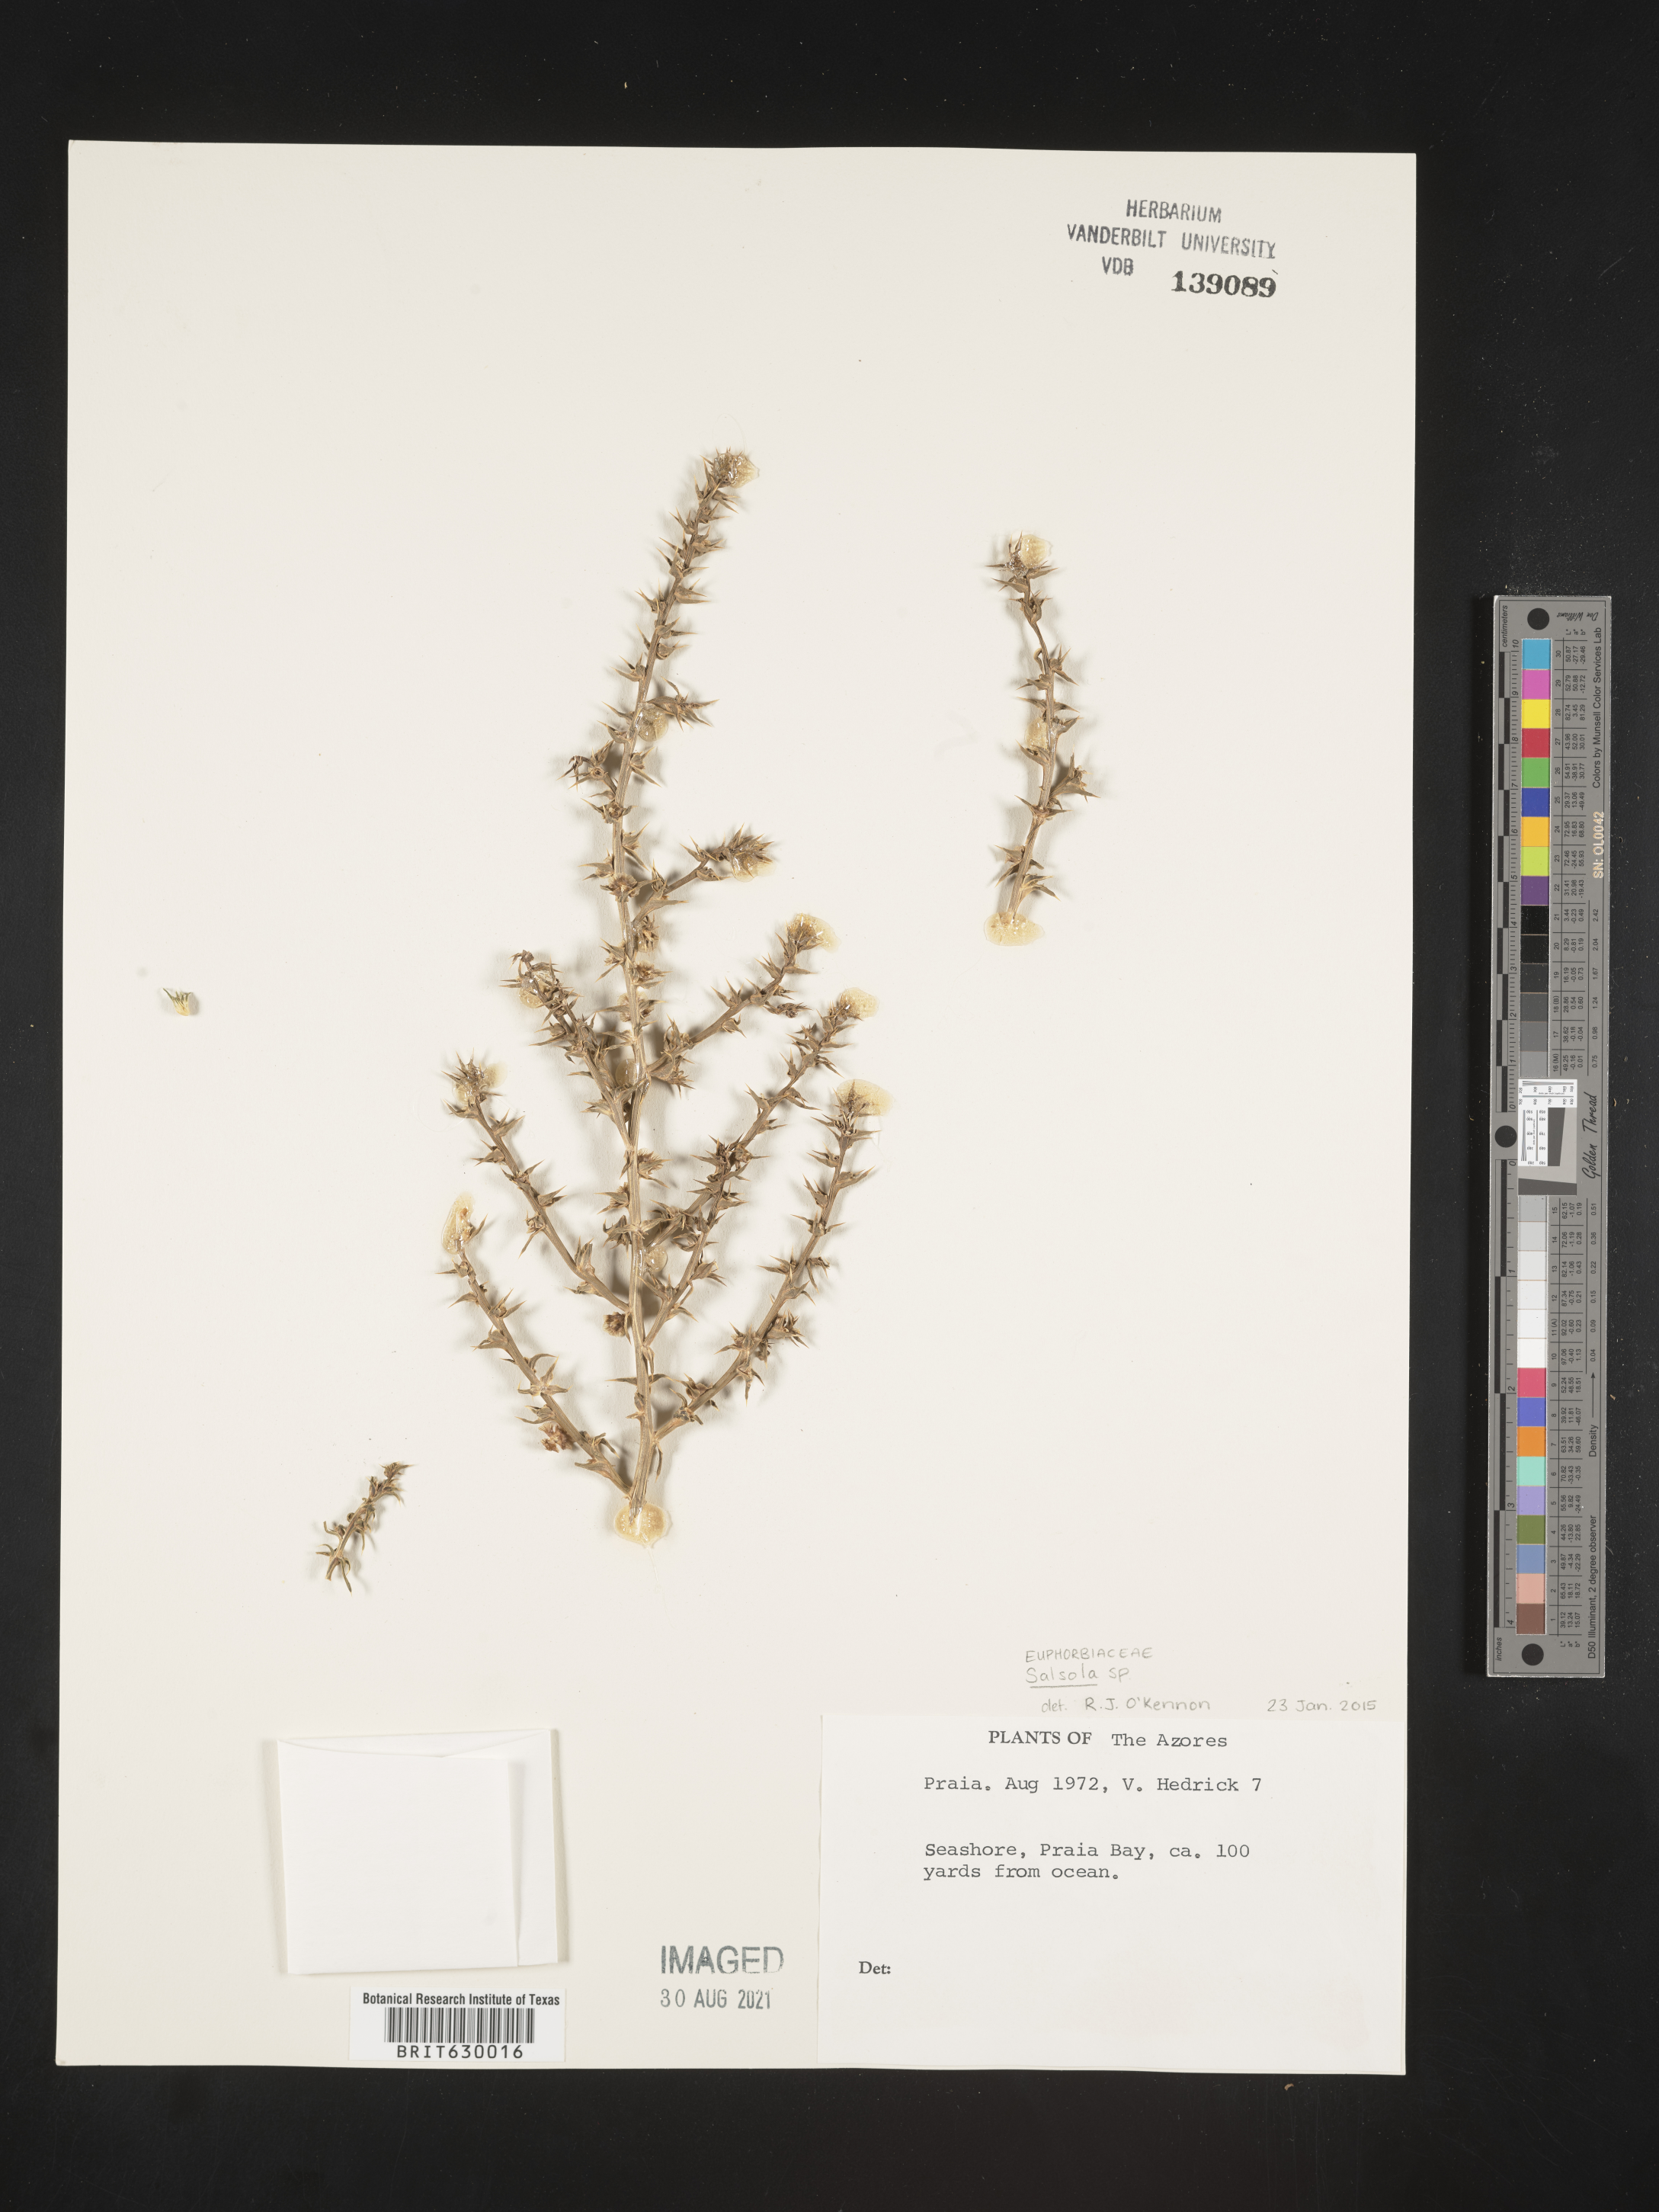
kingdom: Plantae
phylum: Tracheophyta
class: Magnoliopsida
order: Caryophyllales
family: Amaranthaceae
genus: Salsola
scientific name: Salsola
